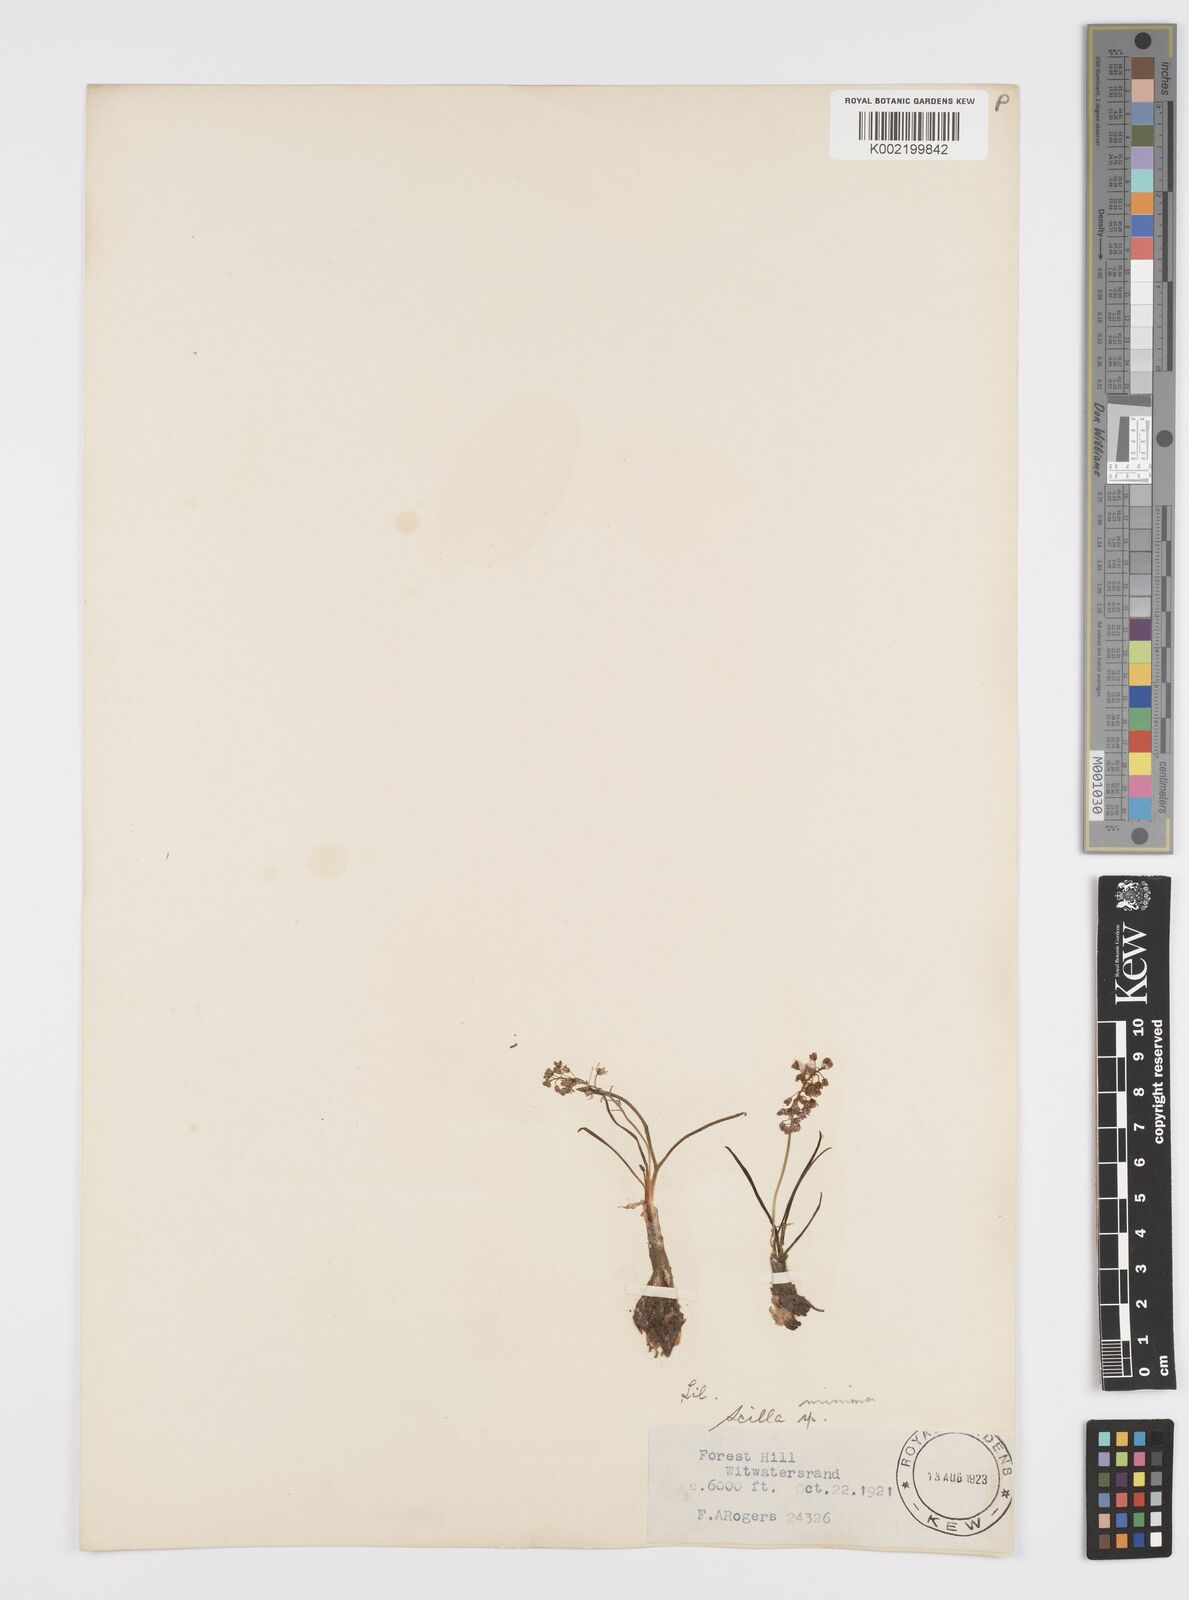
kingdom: Plantae
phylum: Tracheophyta
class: Liliopsida
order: Asparagales
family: Asparagaceae
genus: Ledebouria
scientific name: Ledebouria cooperi
